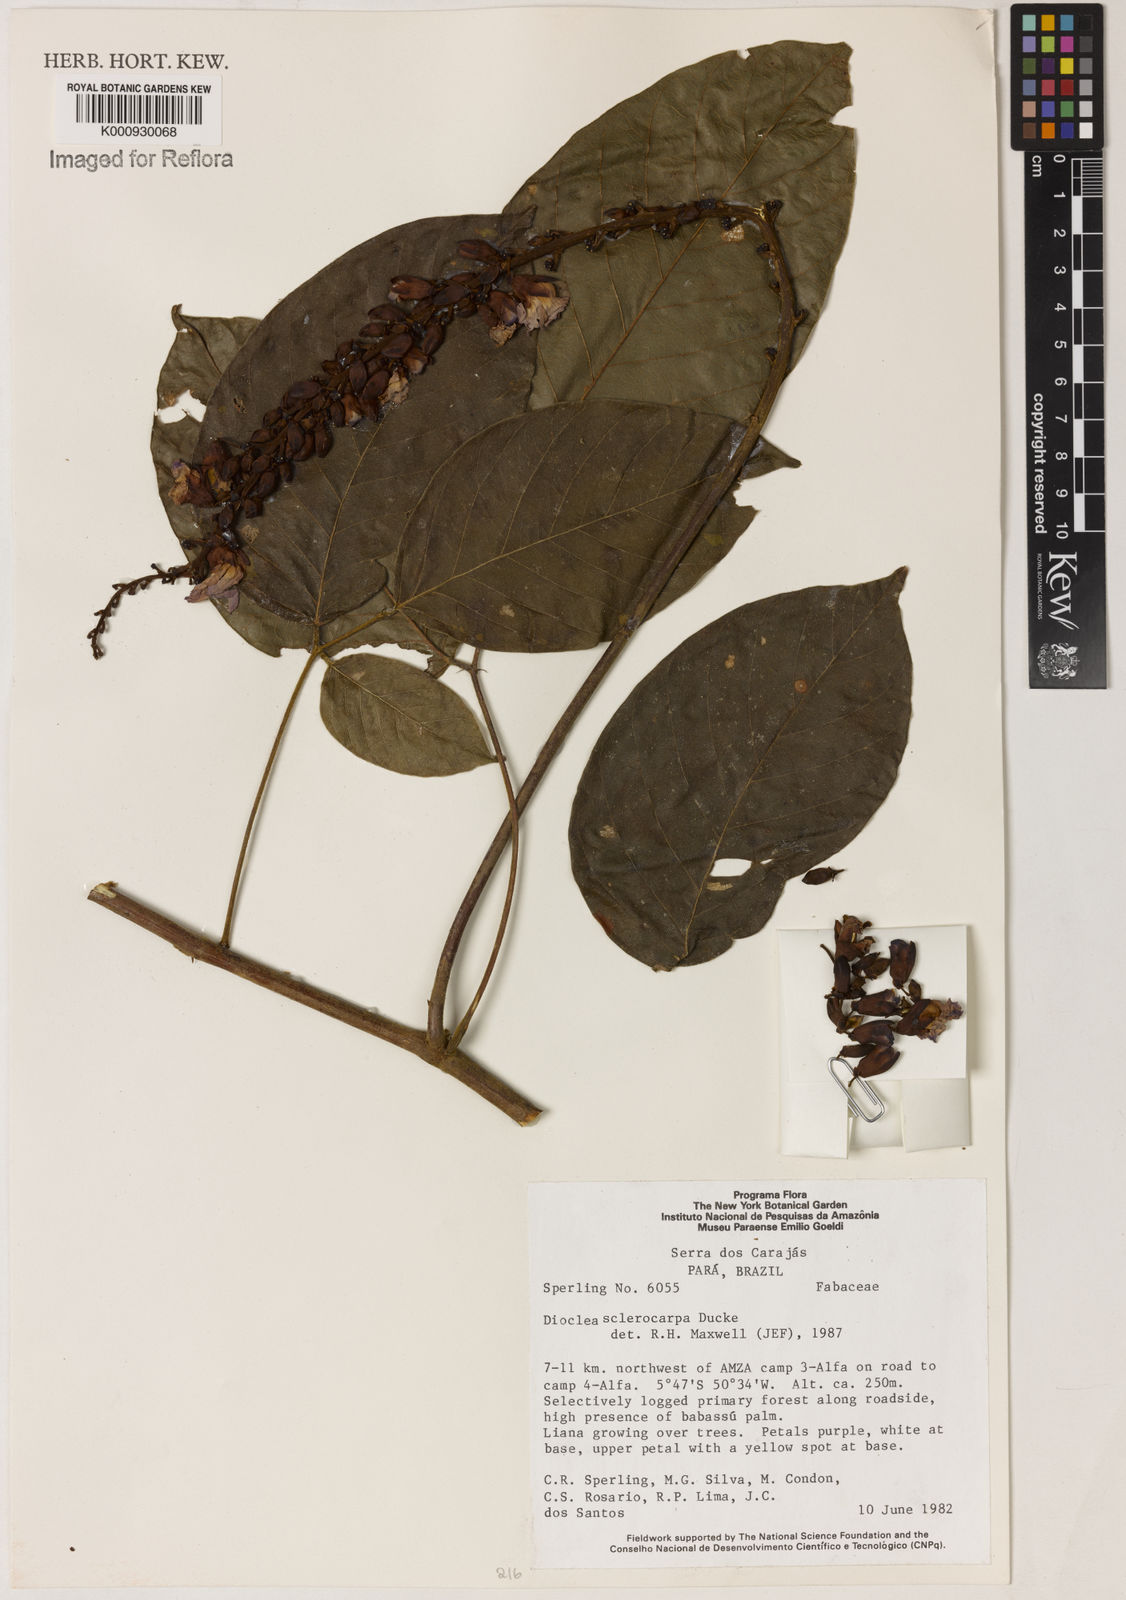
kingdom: Plantae
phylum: Tracheophyta
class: Magnoliopsida
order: Fabales
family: Fabaceae
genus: Macropsychanthus
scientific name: Macropsychanthus sclerocarpus
